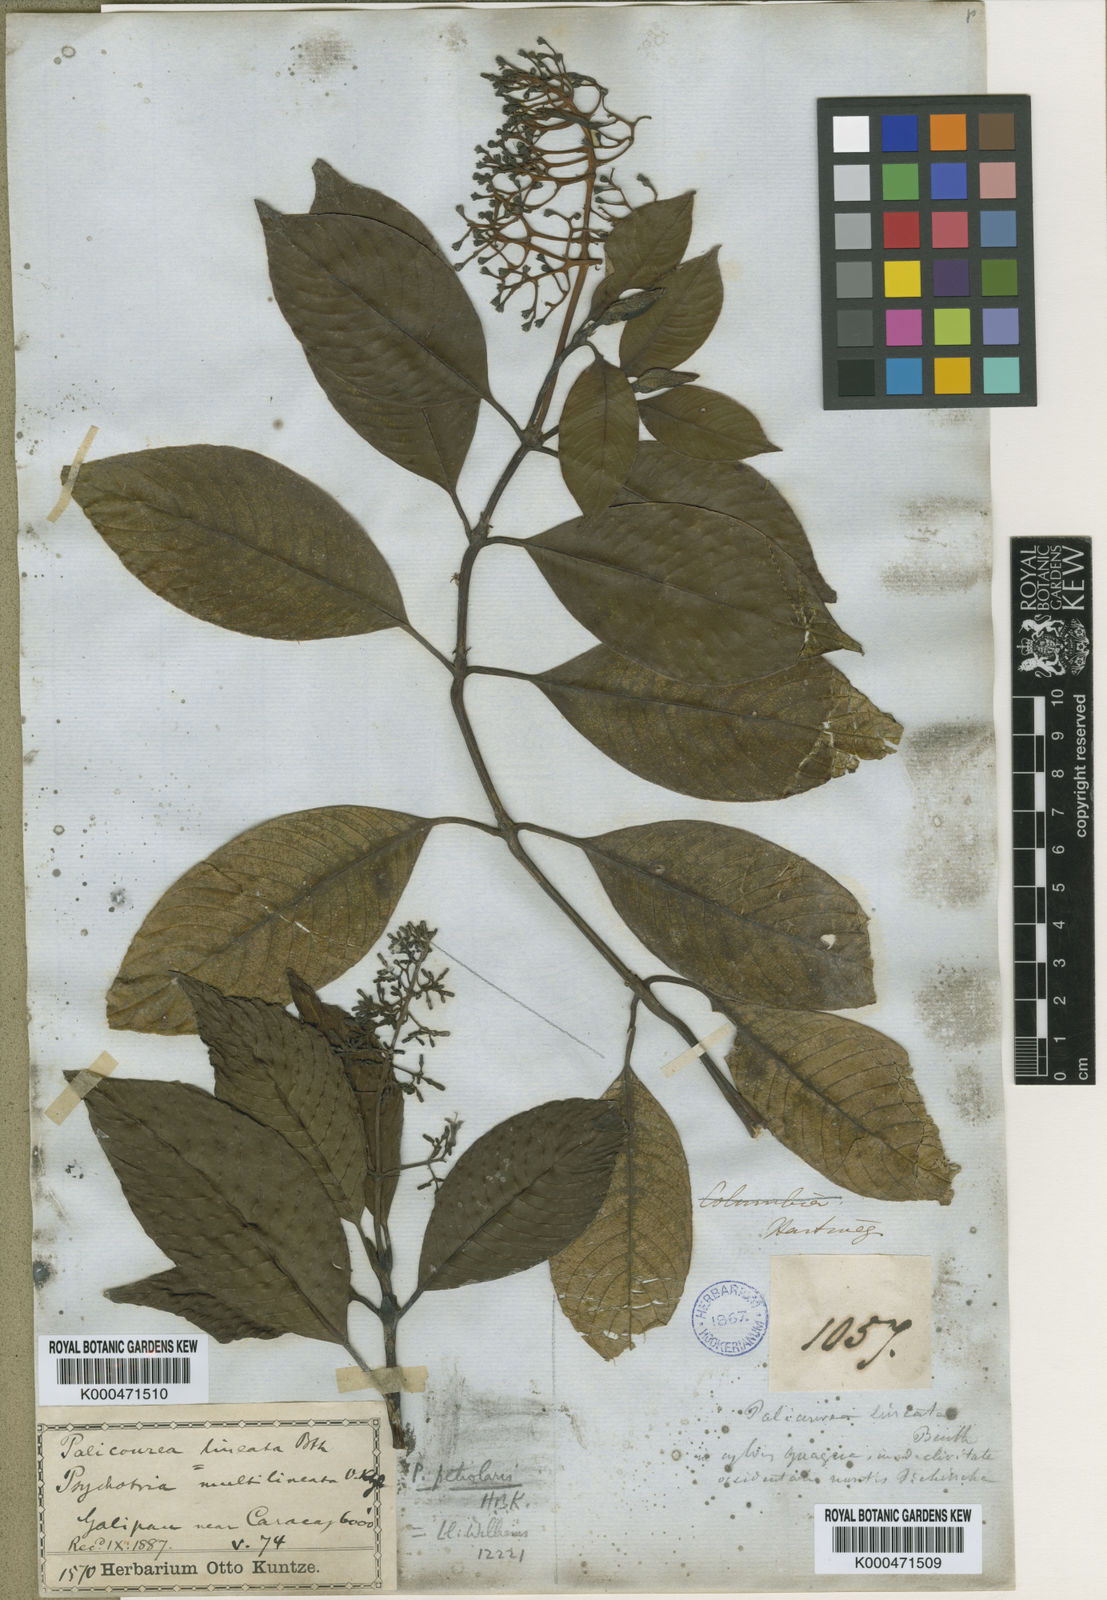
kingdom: Plantae
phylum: Tracheophyta
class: Magnoliopsida
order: Gentianales
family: Rubiaceae
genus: Palicourea
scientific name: Palicourea lineata
